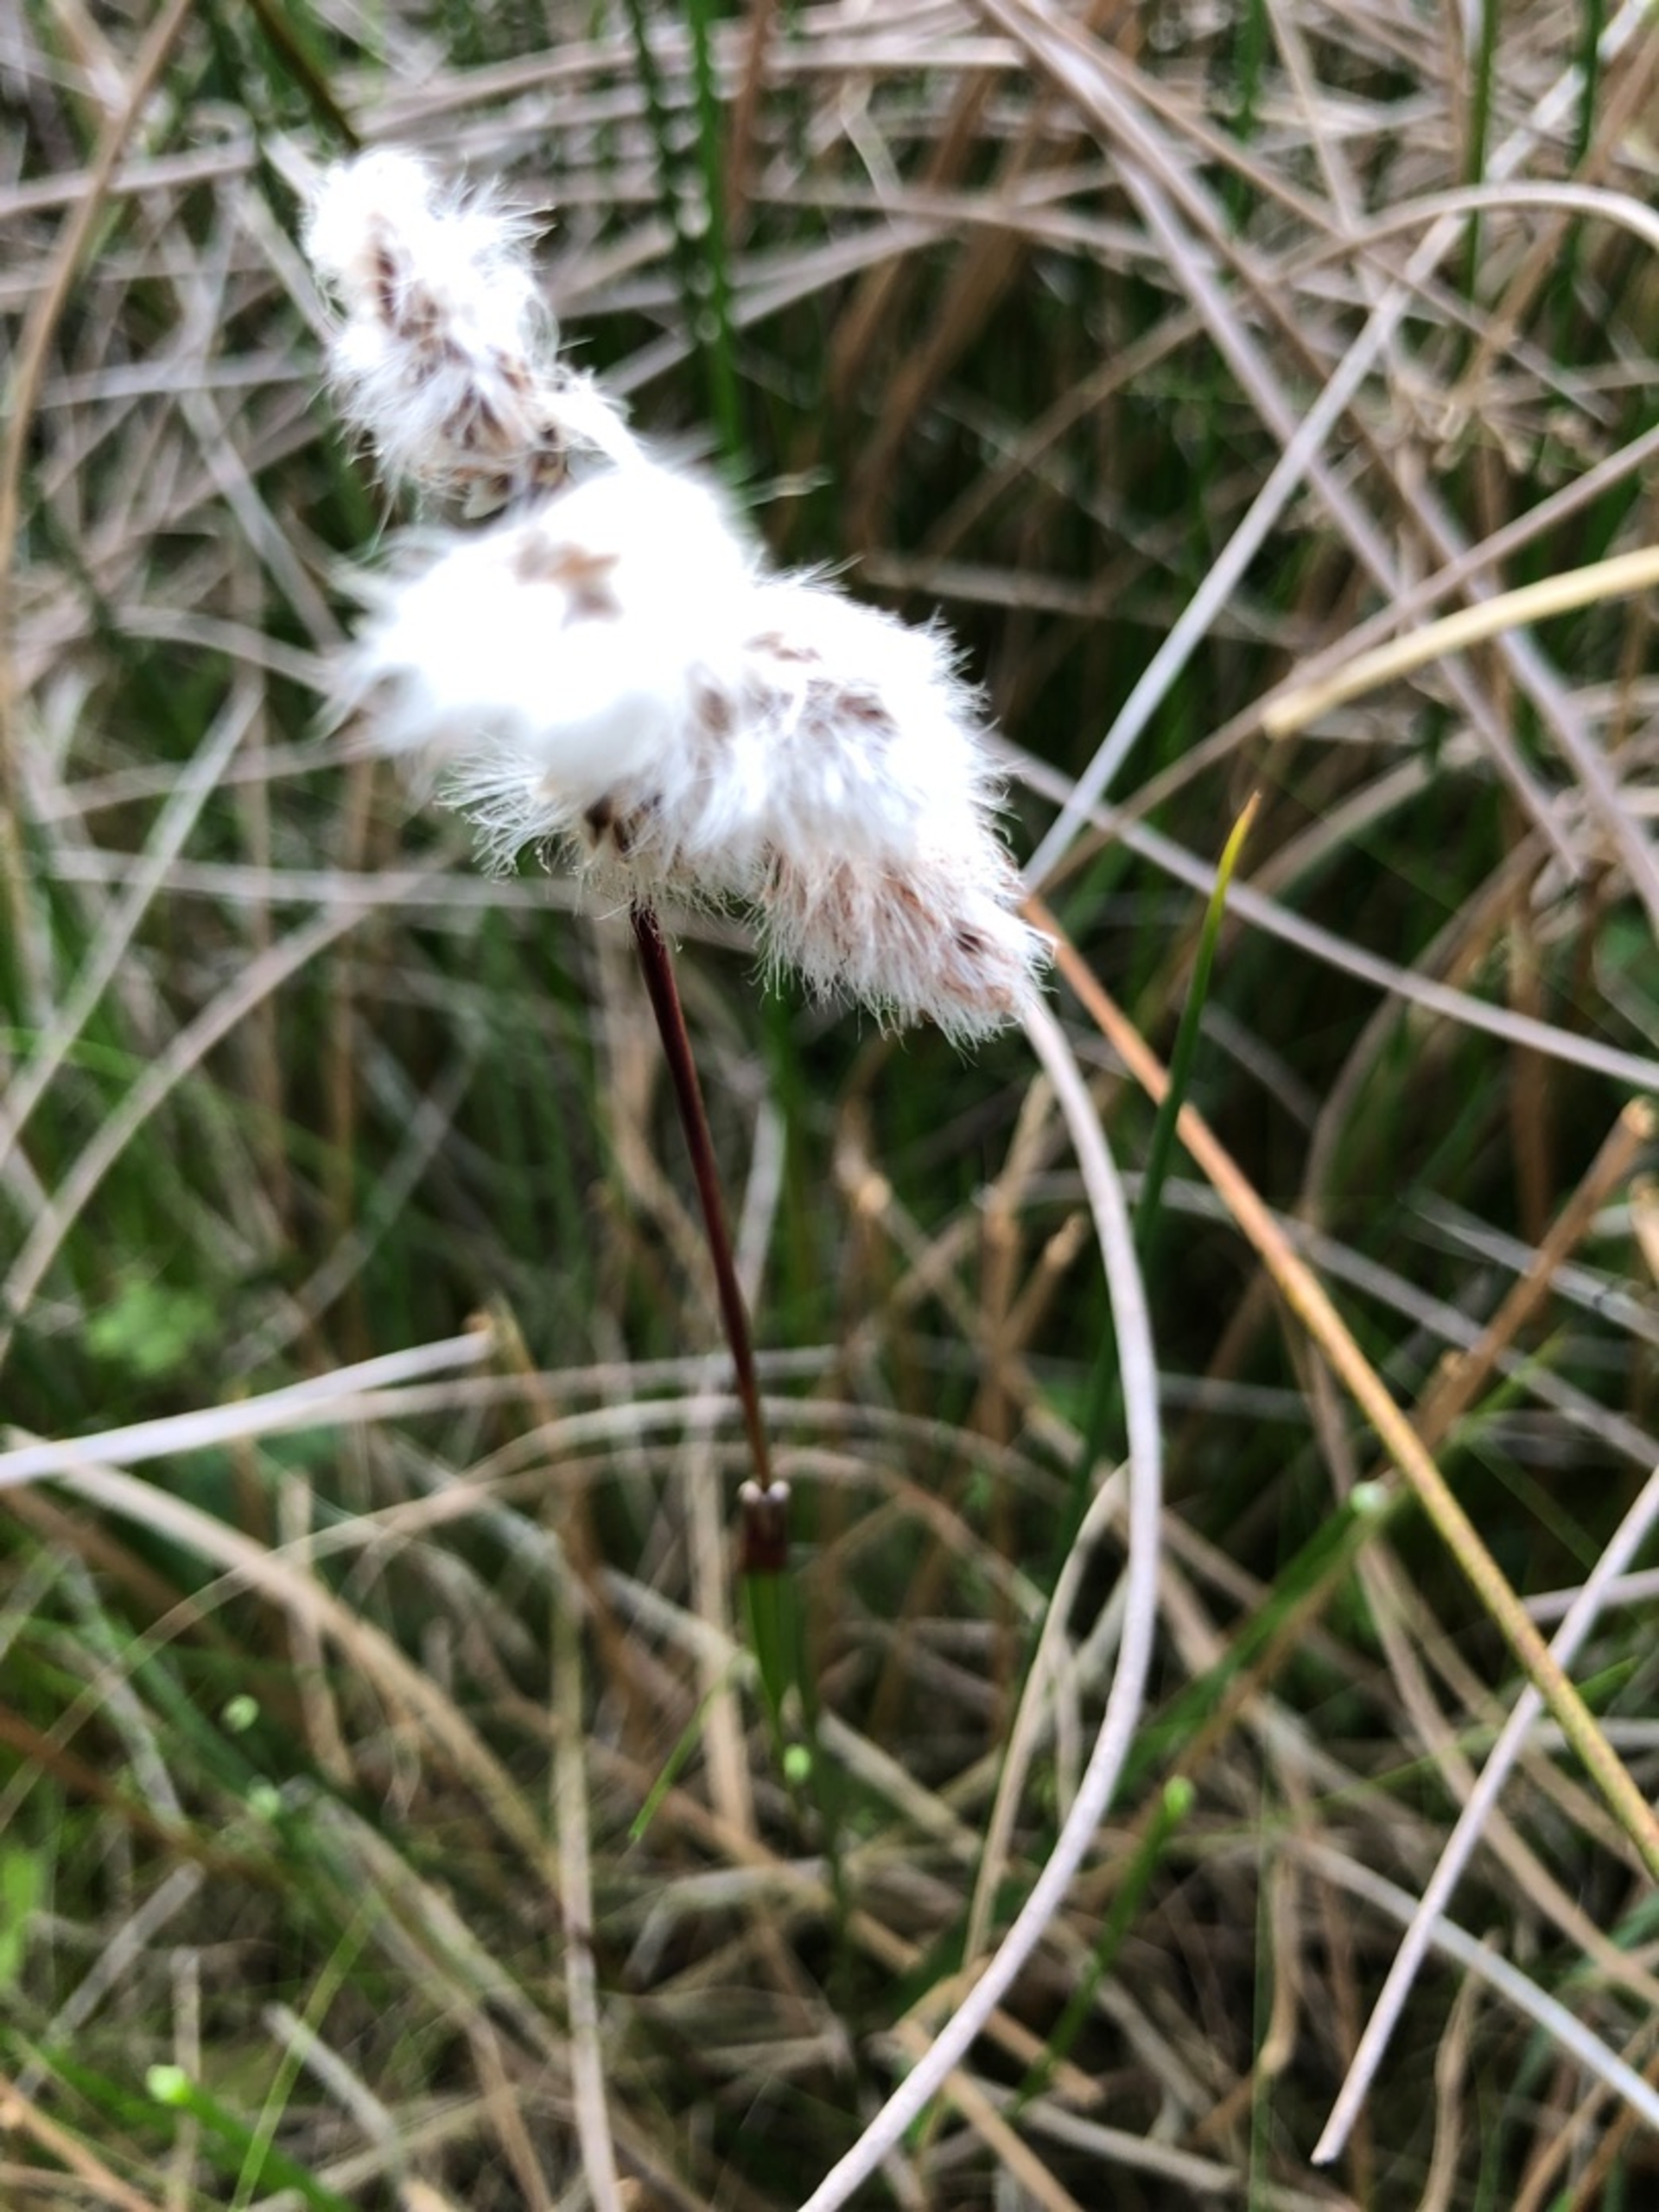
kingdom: Plantae
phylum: Tracheophyta
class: Liliopsida
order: Poales
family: Cyperaceae
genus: Eriophorum
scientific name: Eriophorum angustifolium
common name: Smalbladet kæruld
